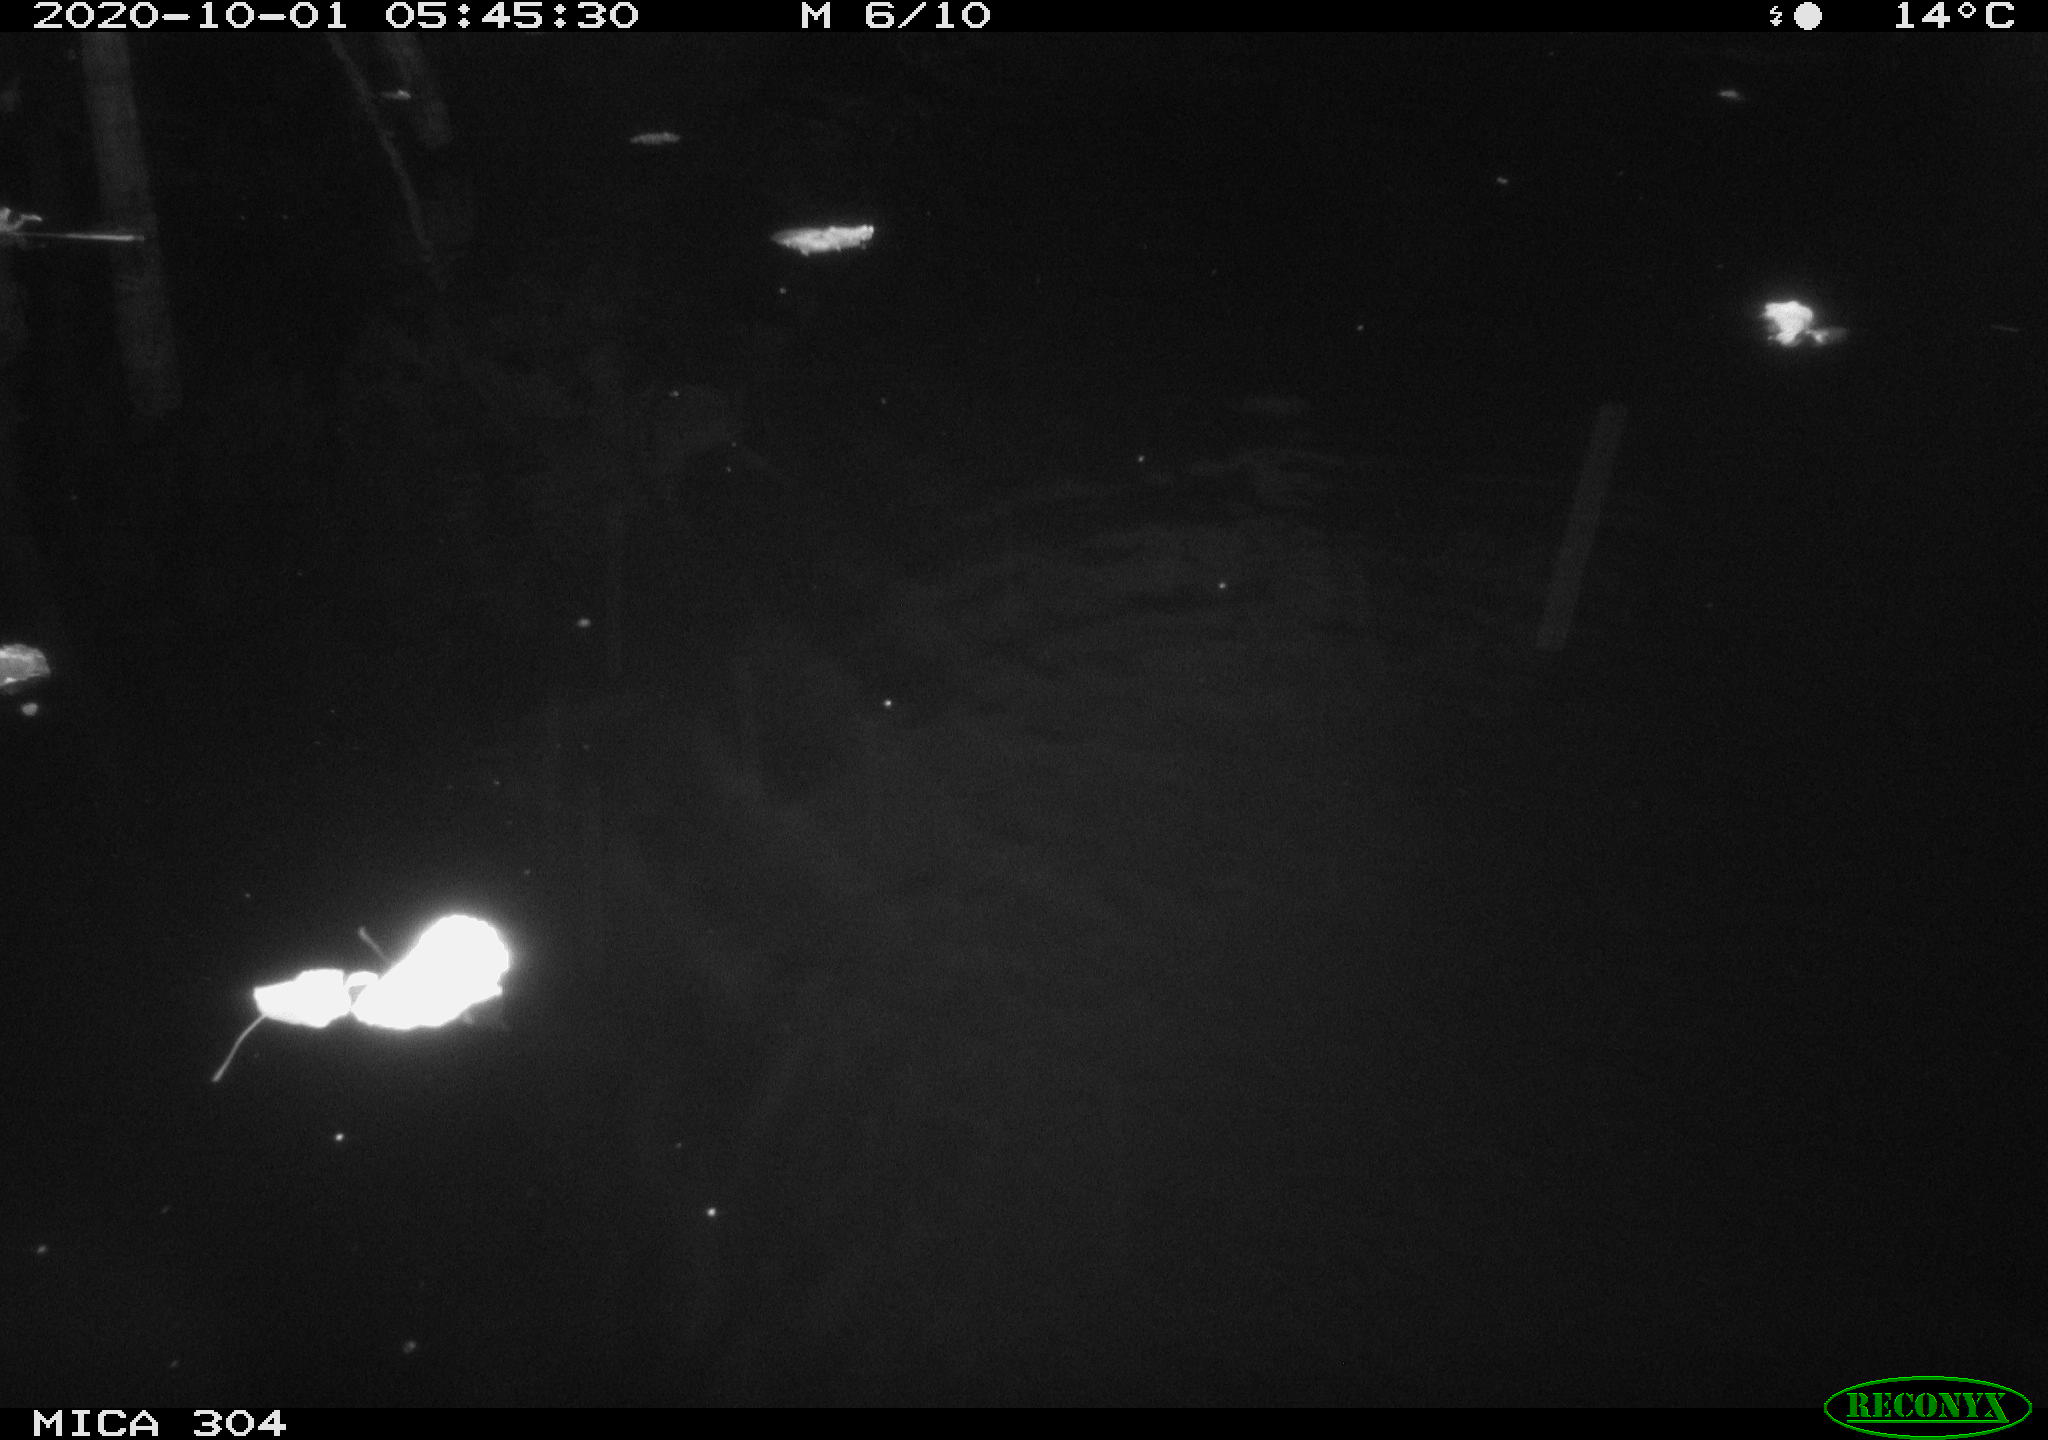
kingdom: Animalia
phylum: Chordata
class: Mammalia
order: Rodentia
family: Muridae
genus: Rattus
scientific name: Rattus norvegicus
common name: Brown rat
